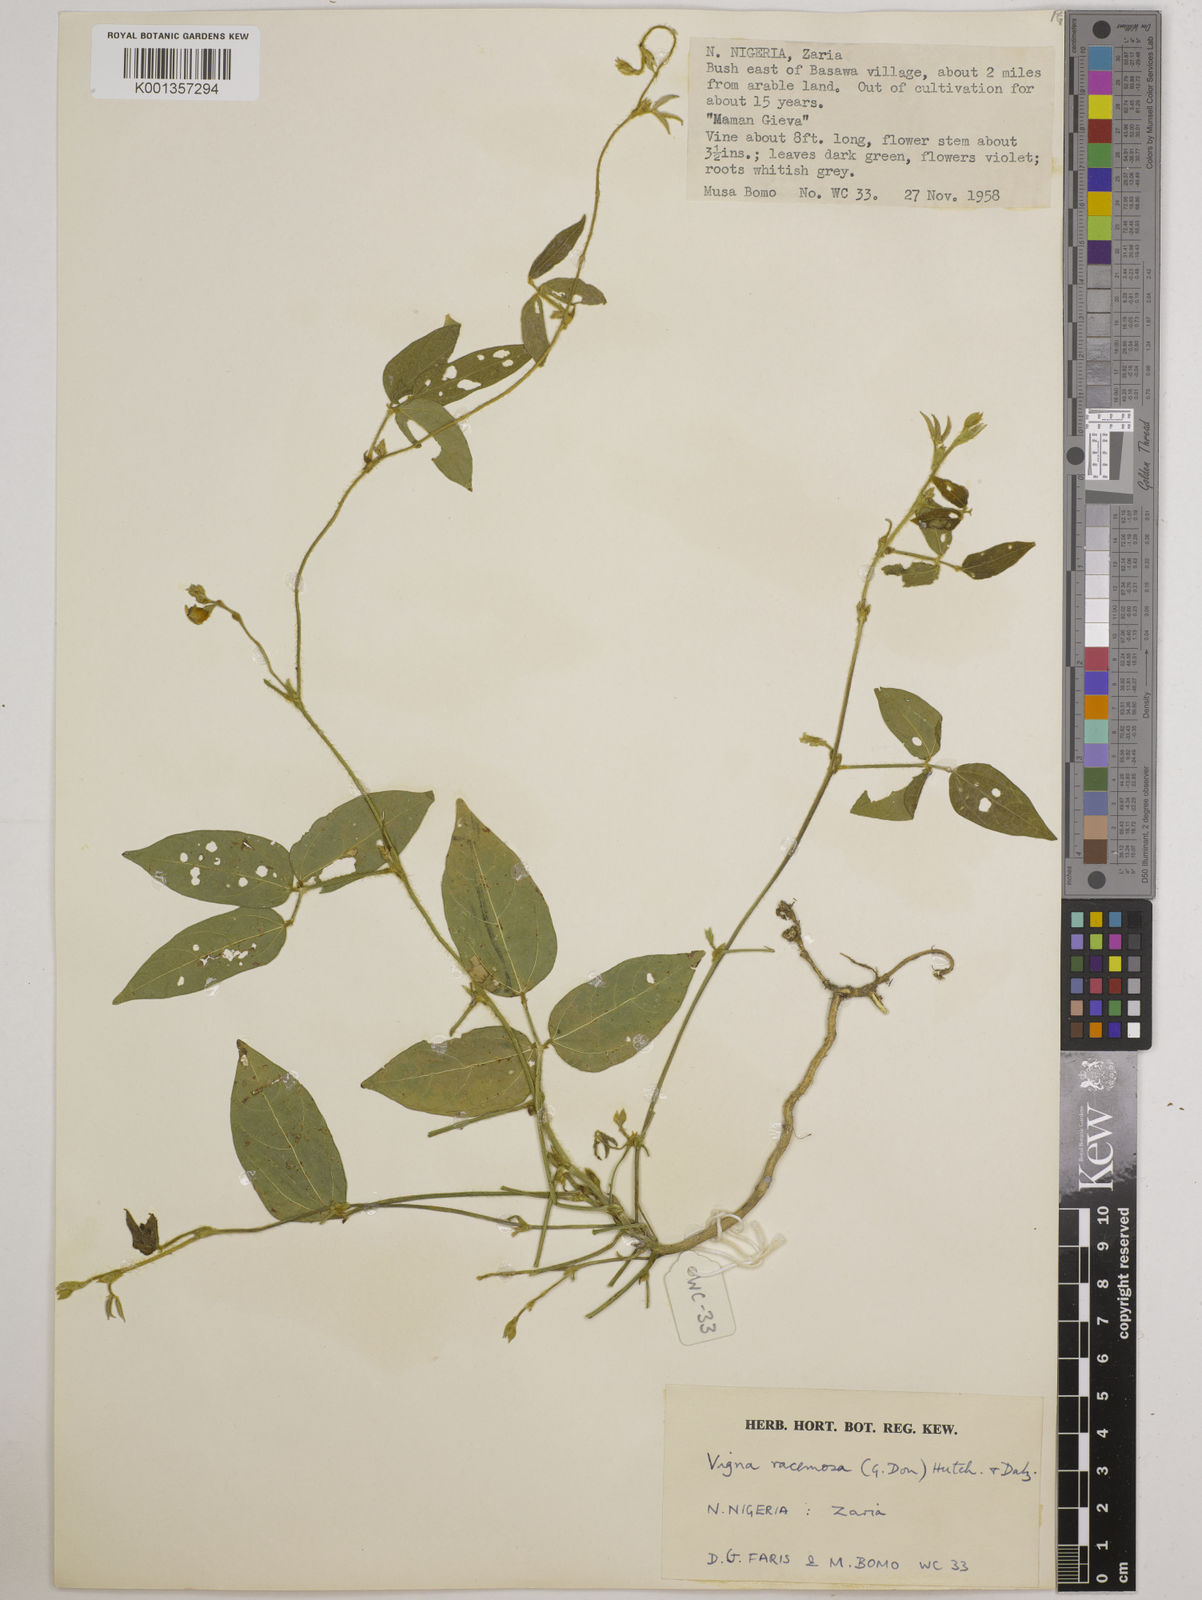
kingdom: Plantae
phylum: Tracheophyta
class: Magnoliopsida
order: Fabales
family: Fabaceae
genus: Vigna
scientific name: Vigna racemosa
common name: Beans not eaten
